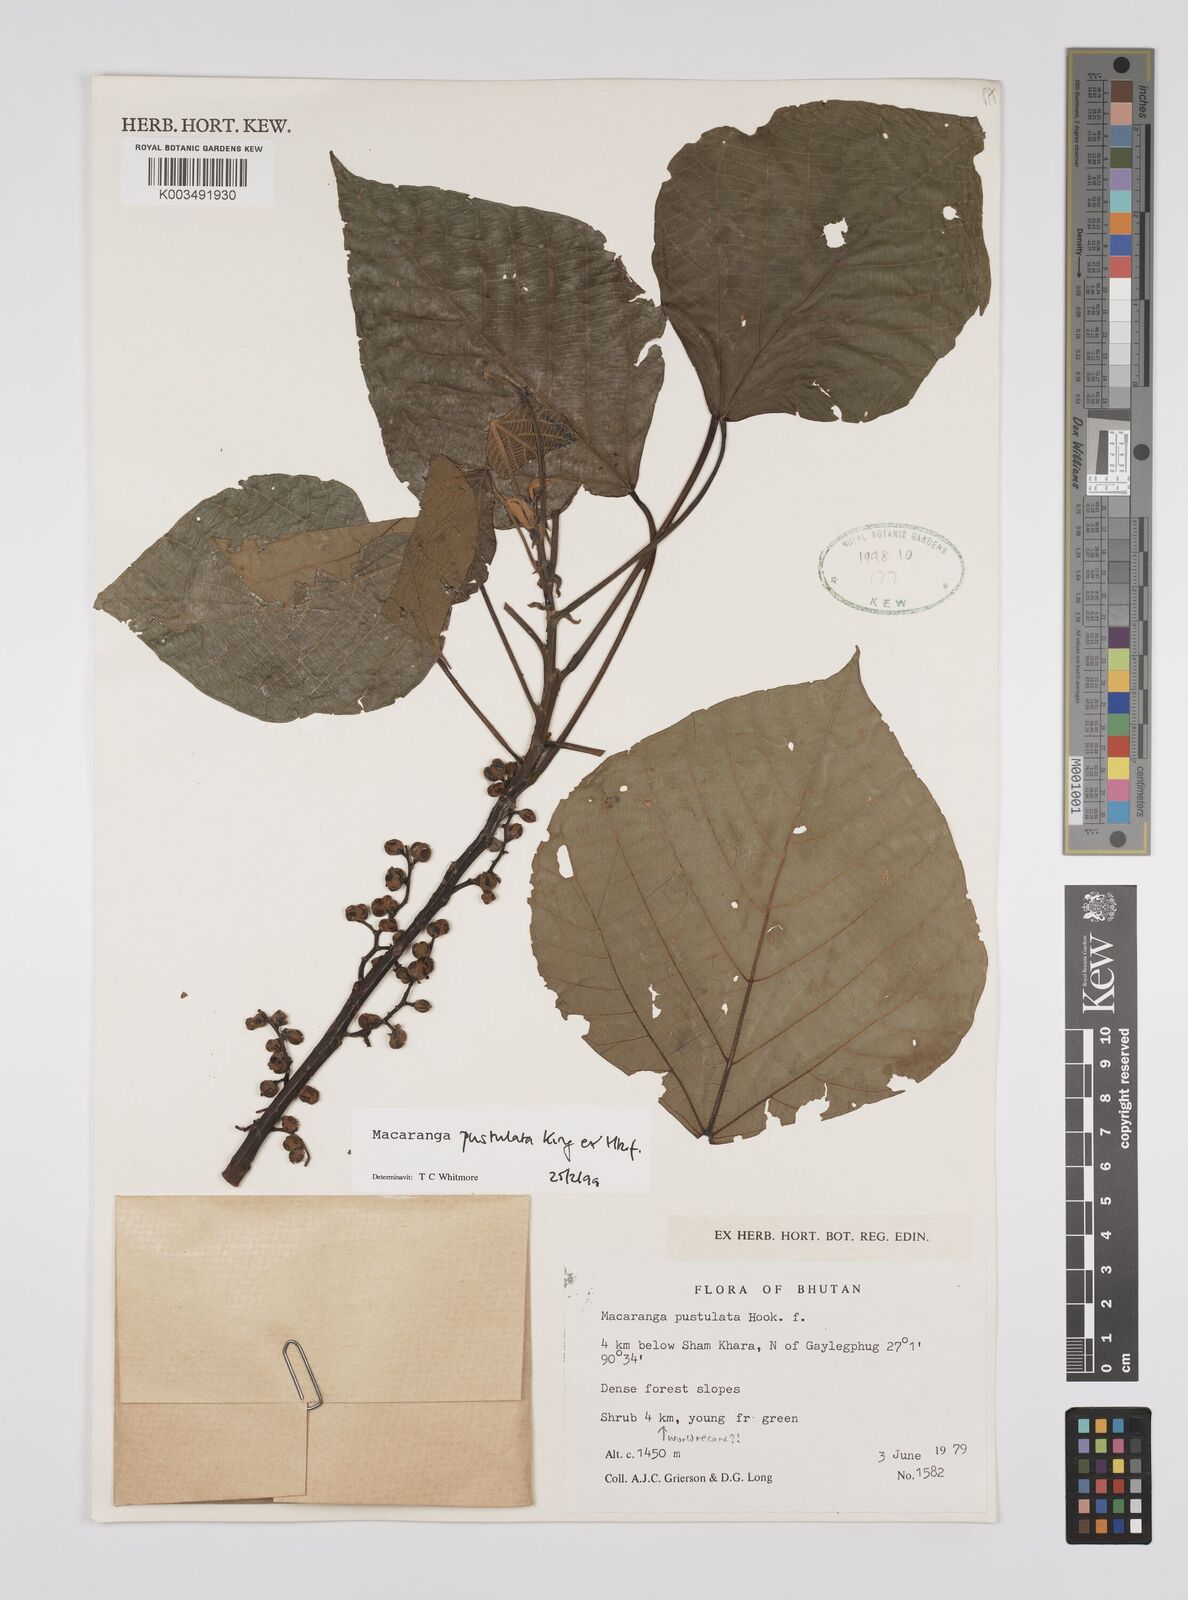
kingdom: Plantae
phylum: Tracheophyta
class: Magnoliopsida
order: Malpighiales
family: Euphorbiaceae
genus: Macaranga
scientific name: Macaranga denticulata
